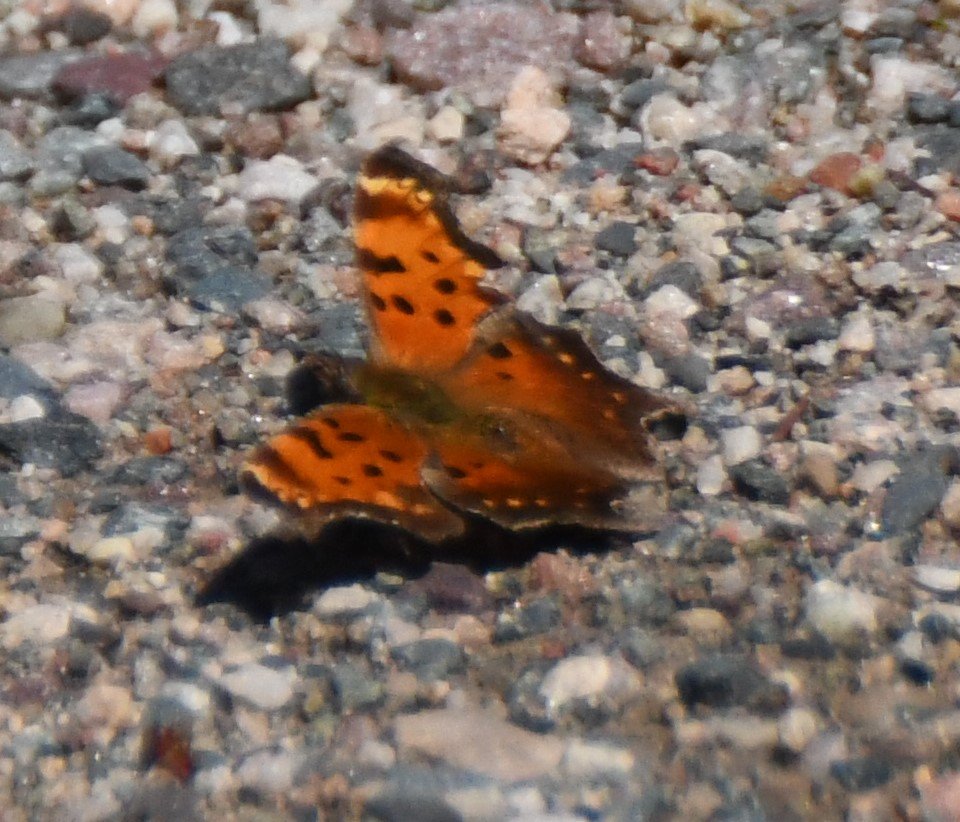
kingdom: Animalia
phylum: Arthropoda
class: Insecta
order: Lepidoptera
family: Nymphalidae
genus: Polygonia
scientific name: Polygonia progne
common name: Gray Comma
